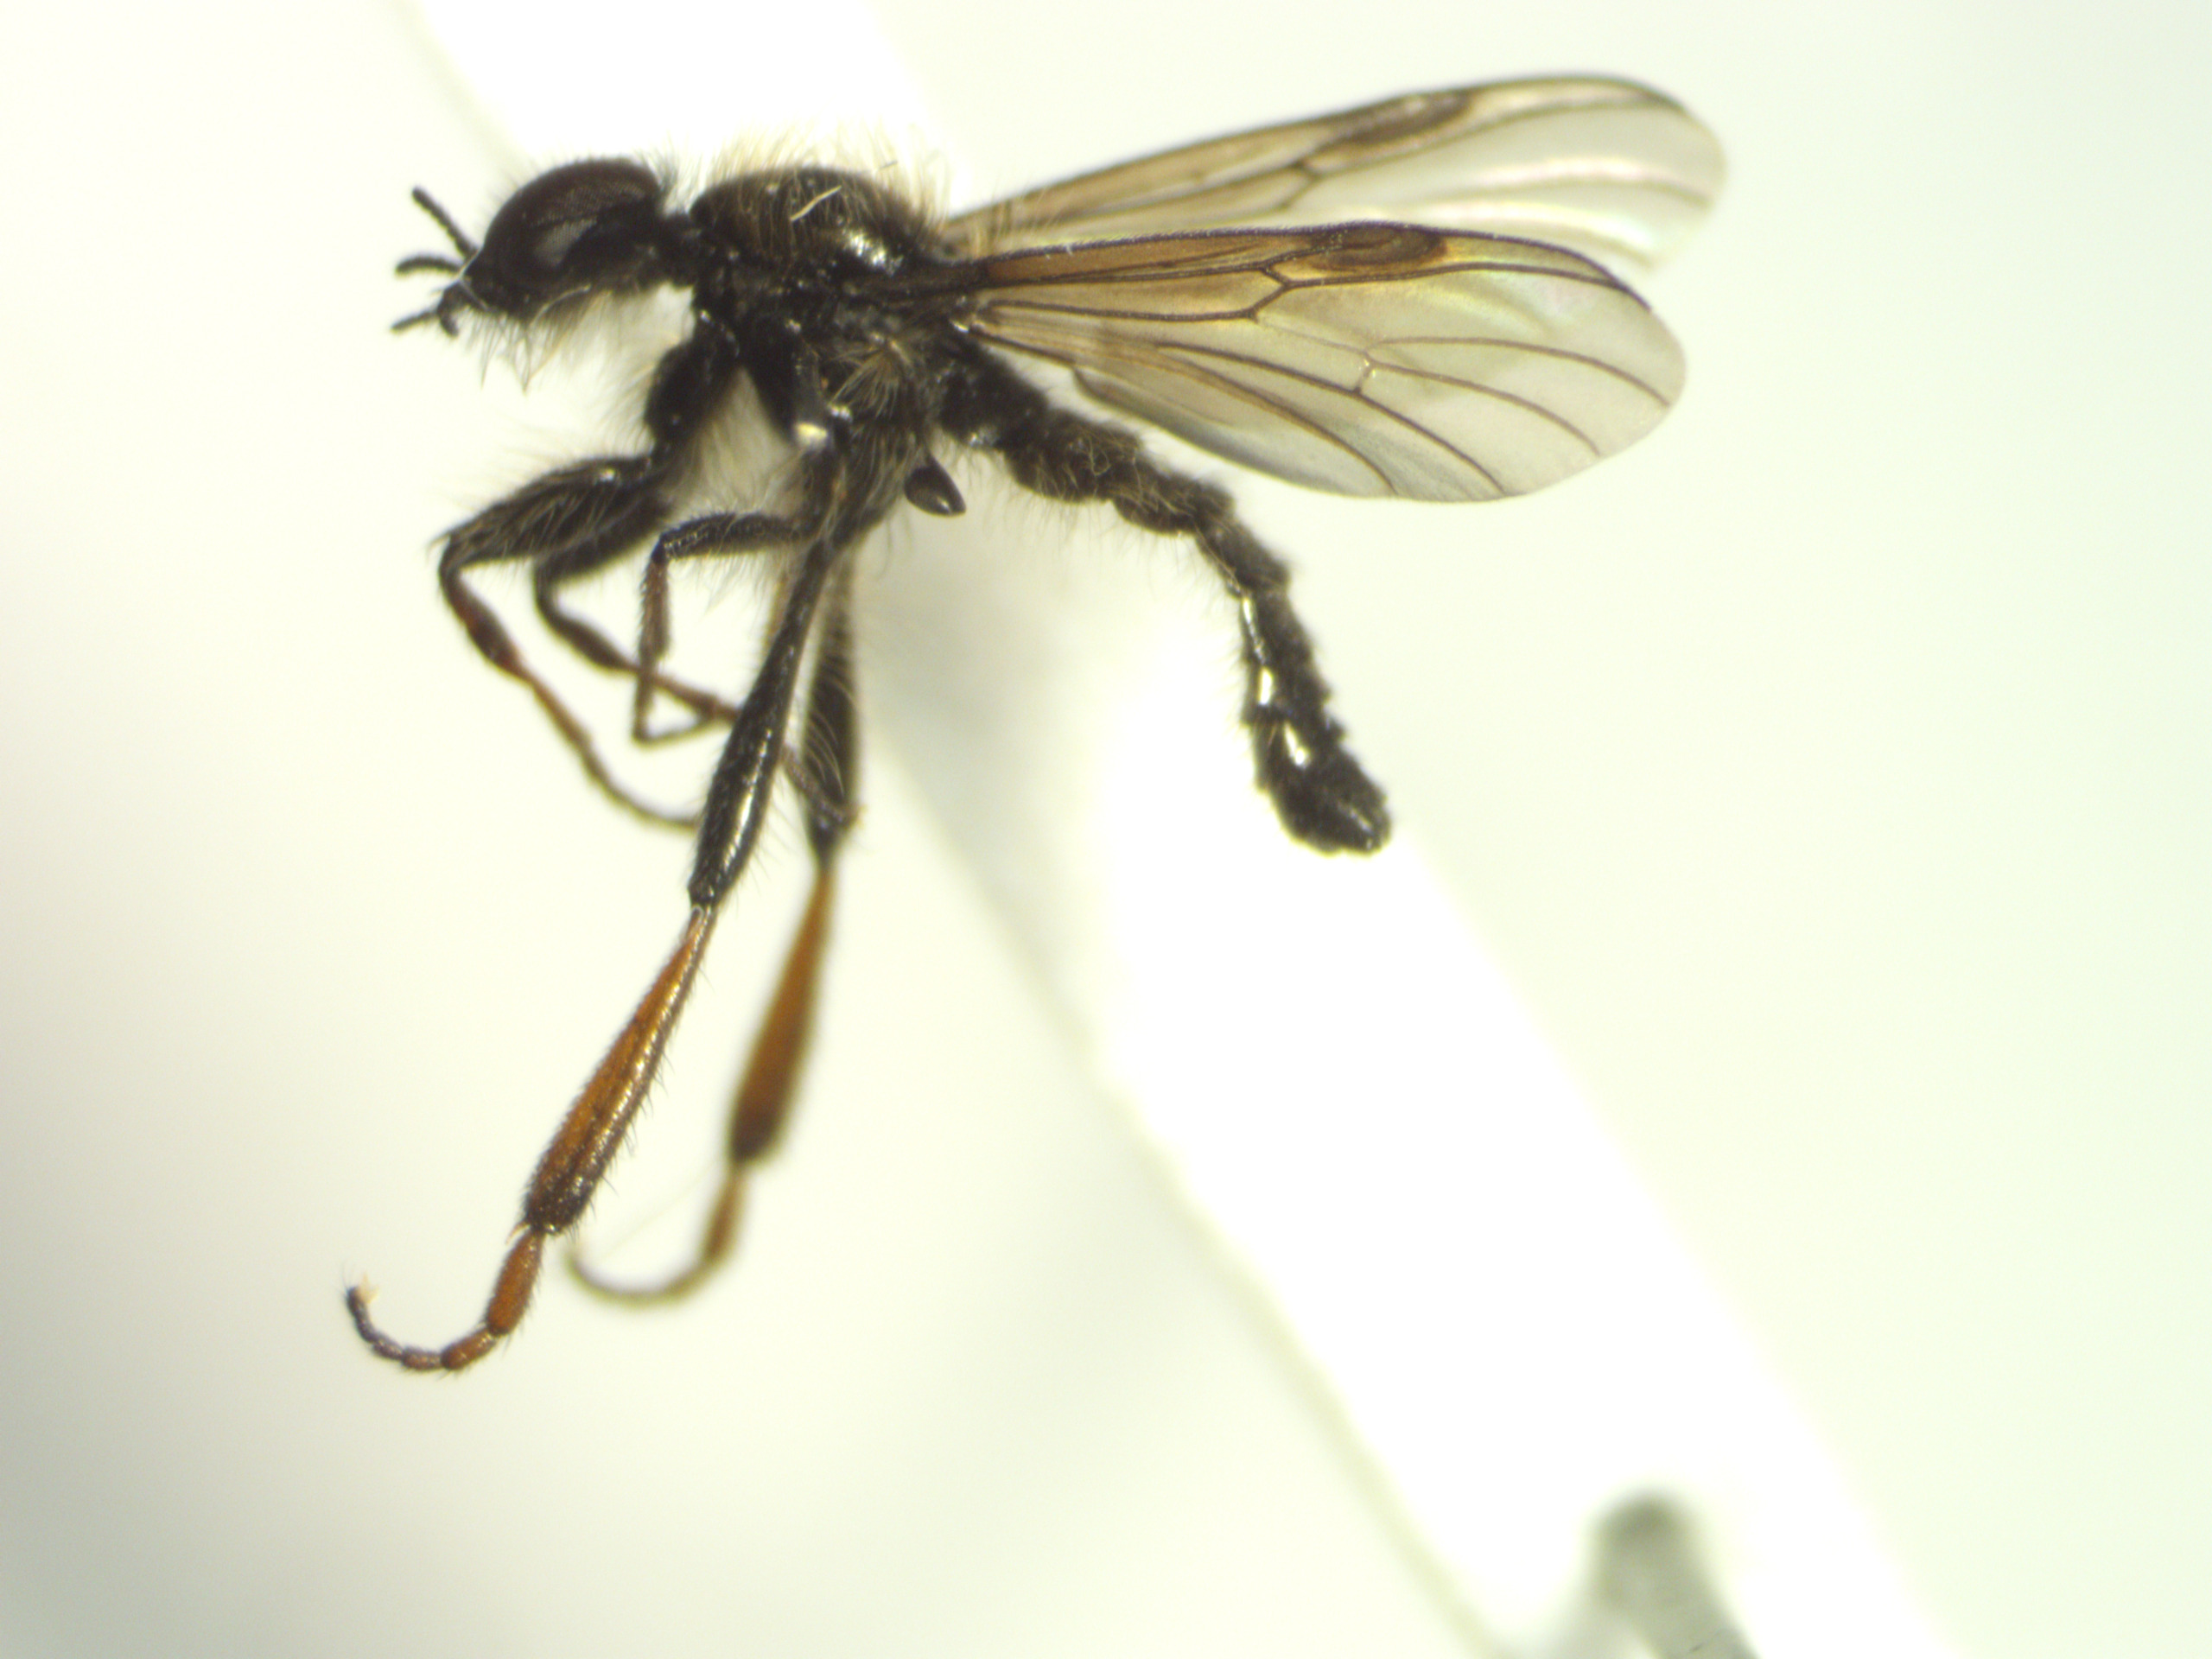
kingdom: Animalia
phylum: Arthropoda
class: Insecta
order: Diptera
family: Bibionidae
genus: Bibio
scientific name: Bibio lanigerus
